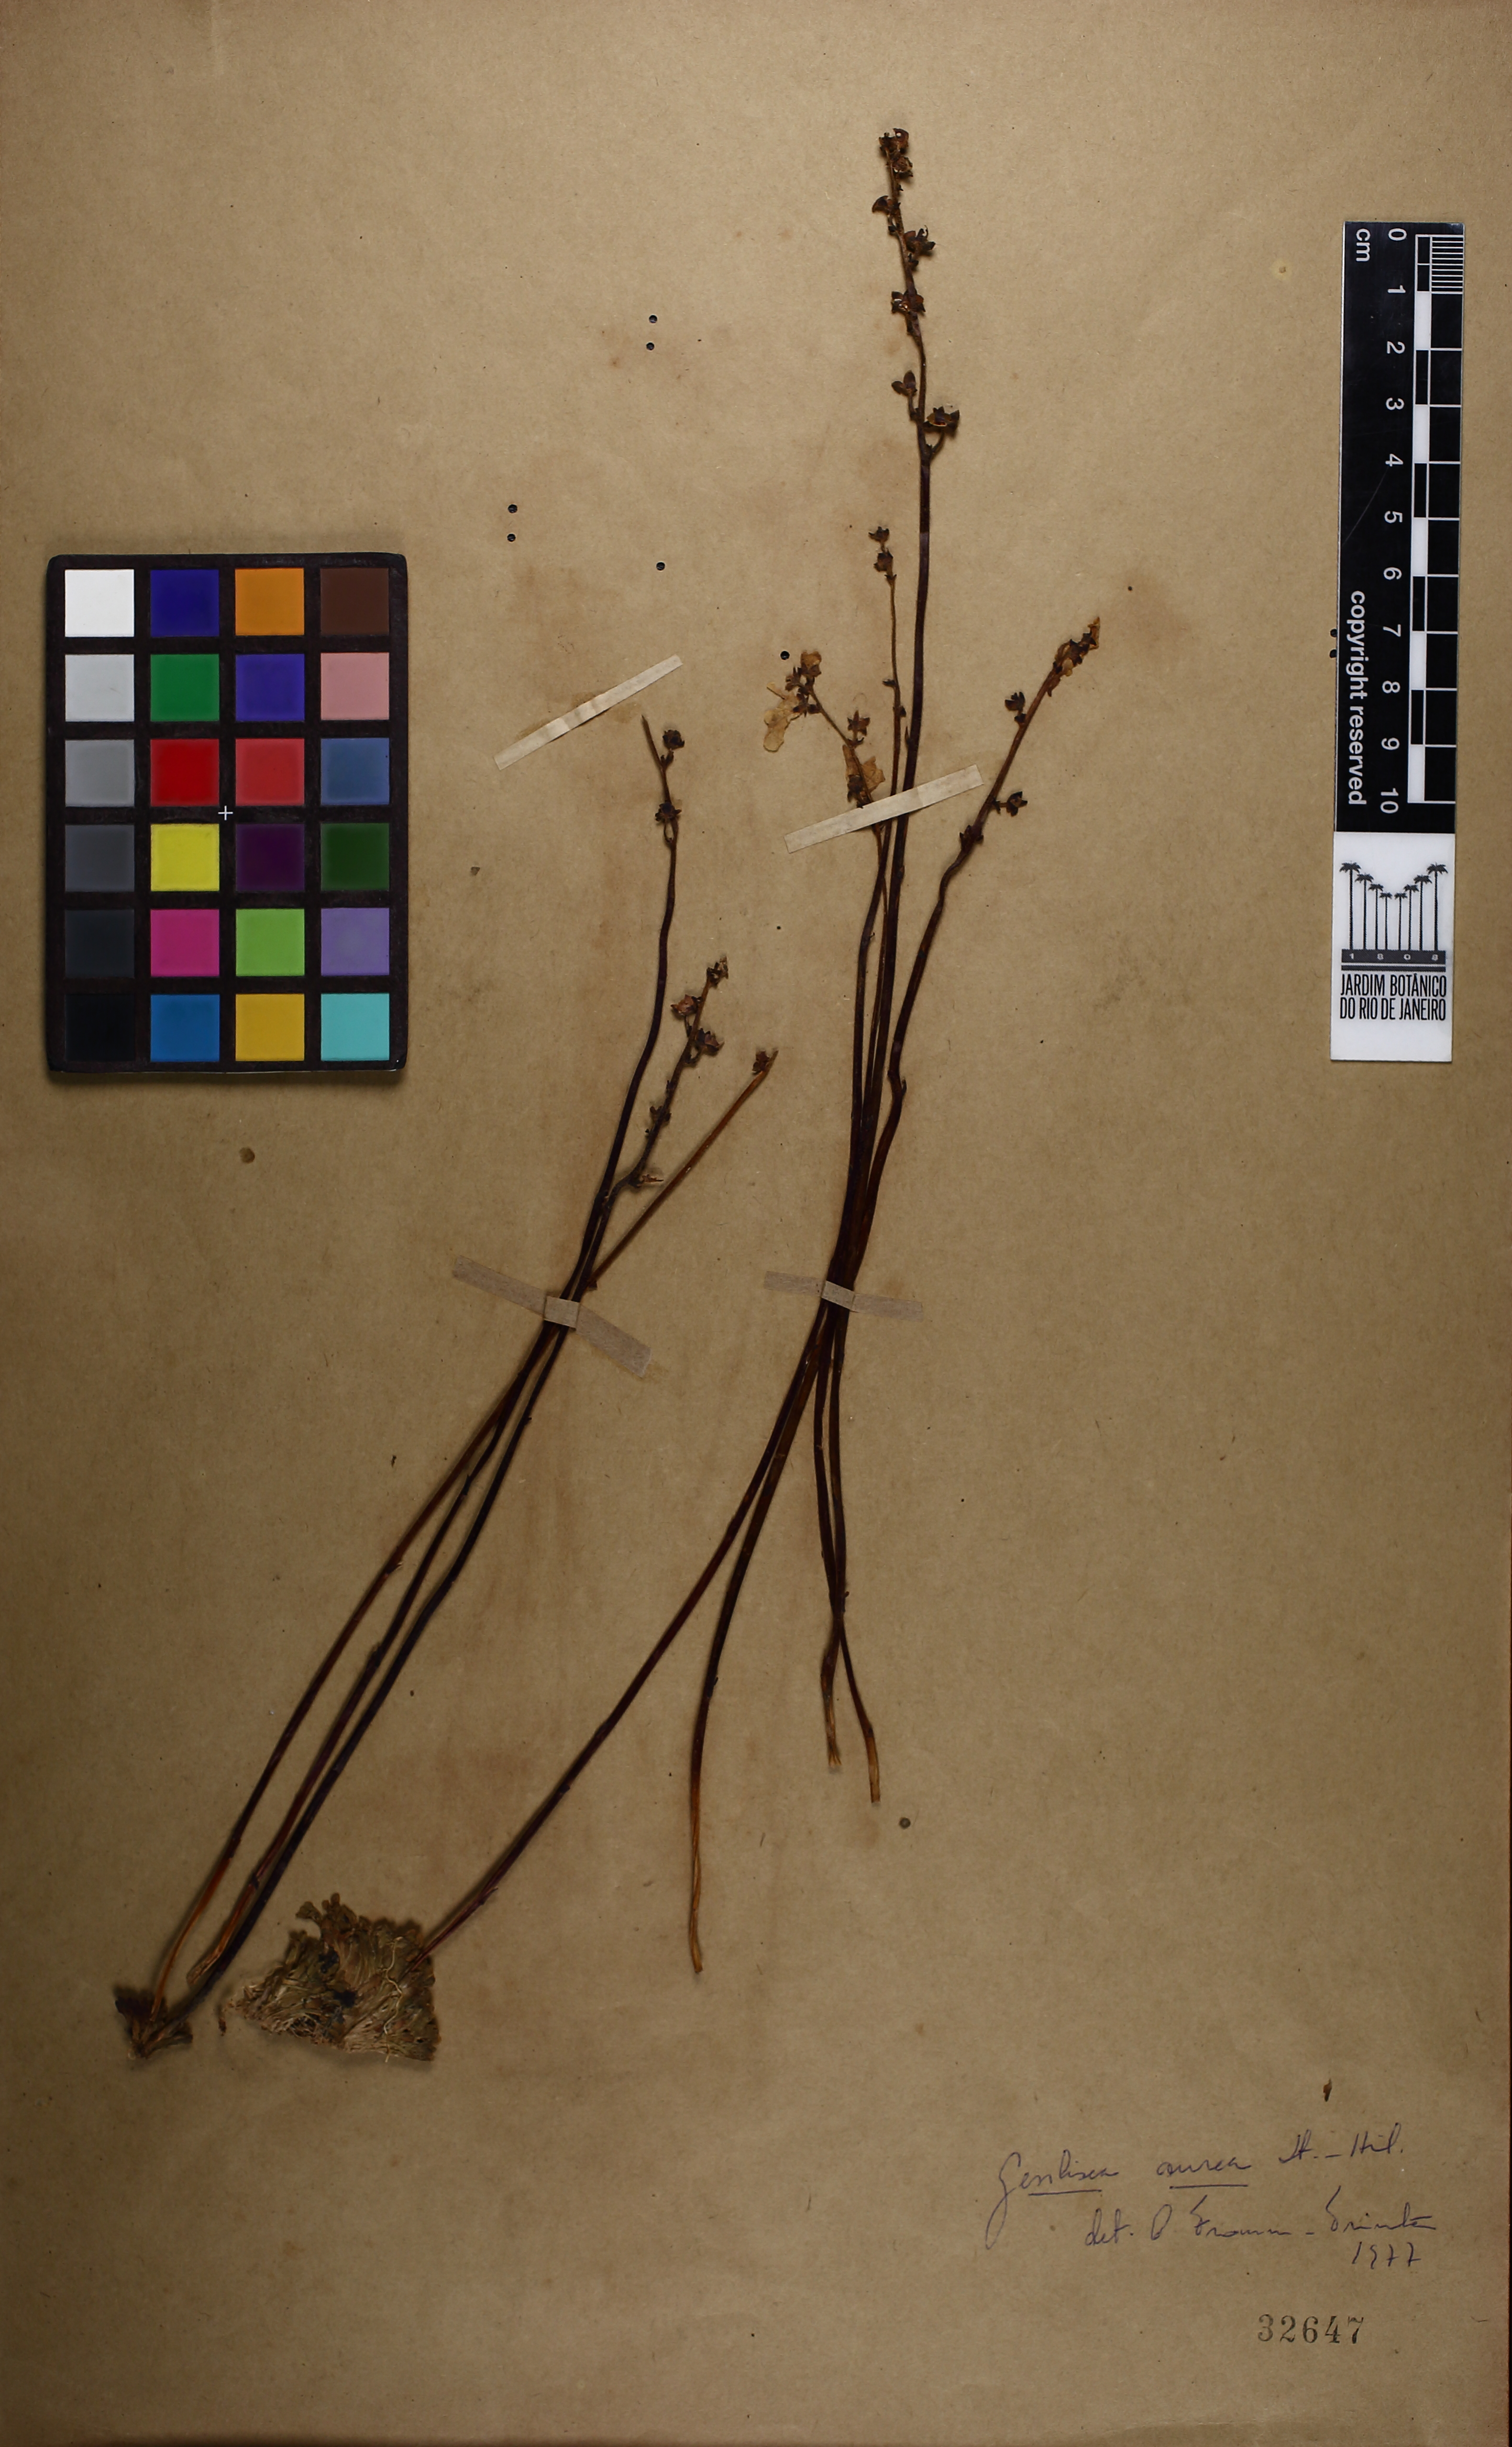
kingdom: Plantae
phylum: Tracheophyta
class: Magnoliopsida
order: Lamiales
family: Lentibulariaceae
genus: Genlisea
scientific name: Genlisea
